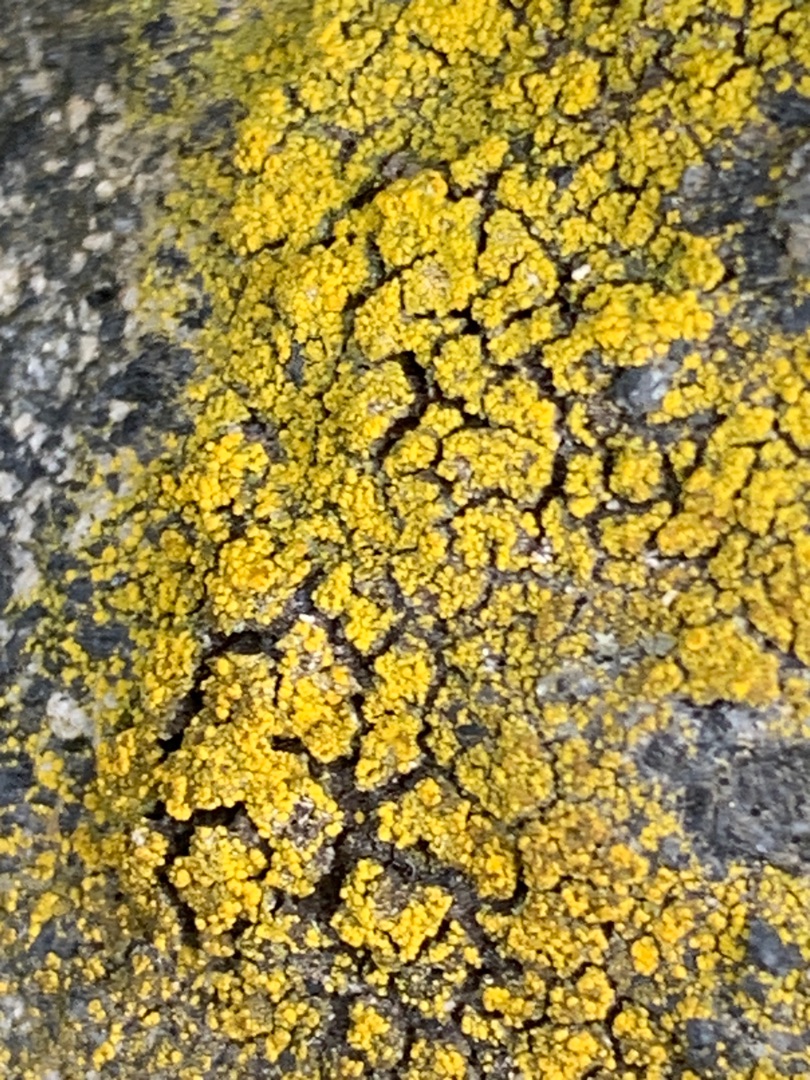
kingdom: Fungi
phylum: Ascomycota
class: Candelariomycetes
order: Candelariales
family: Candelariaceae
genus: Candelariella
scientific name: Candelariella vitellina
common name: Almindelig æggeblommelav
